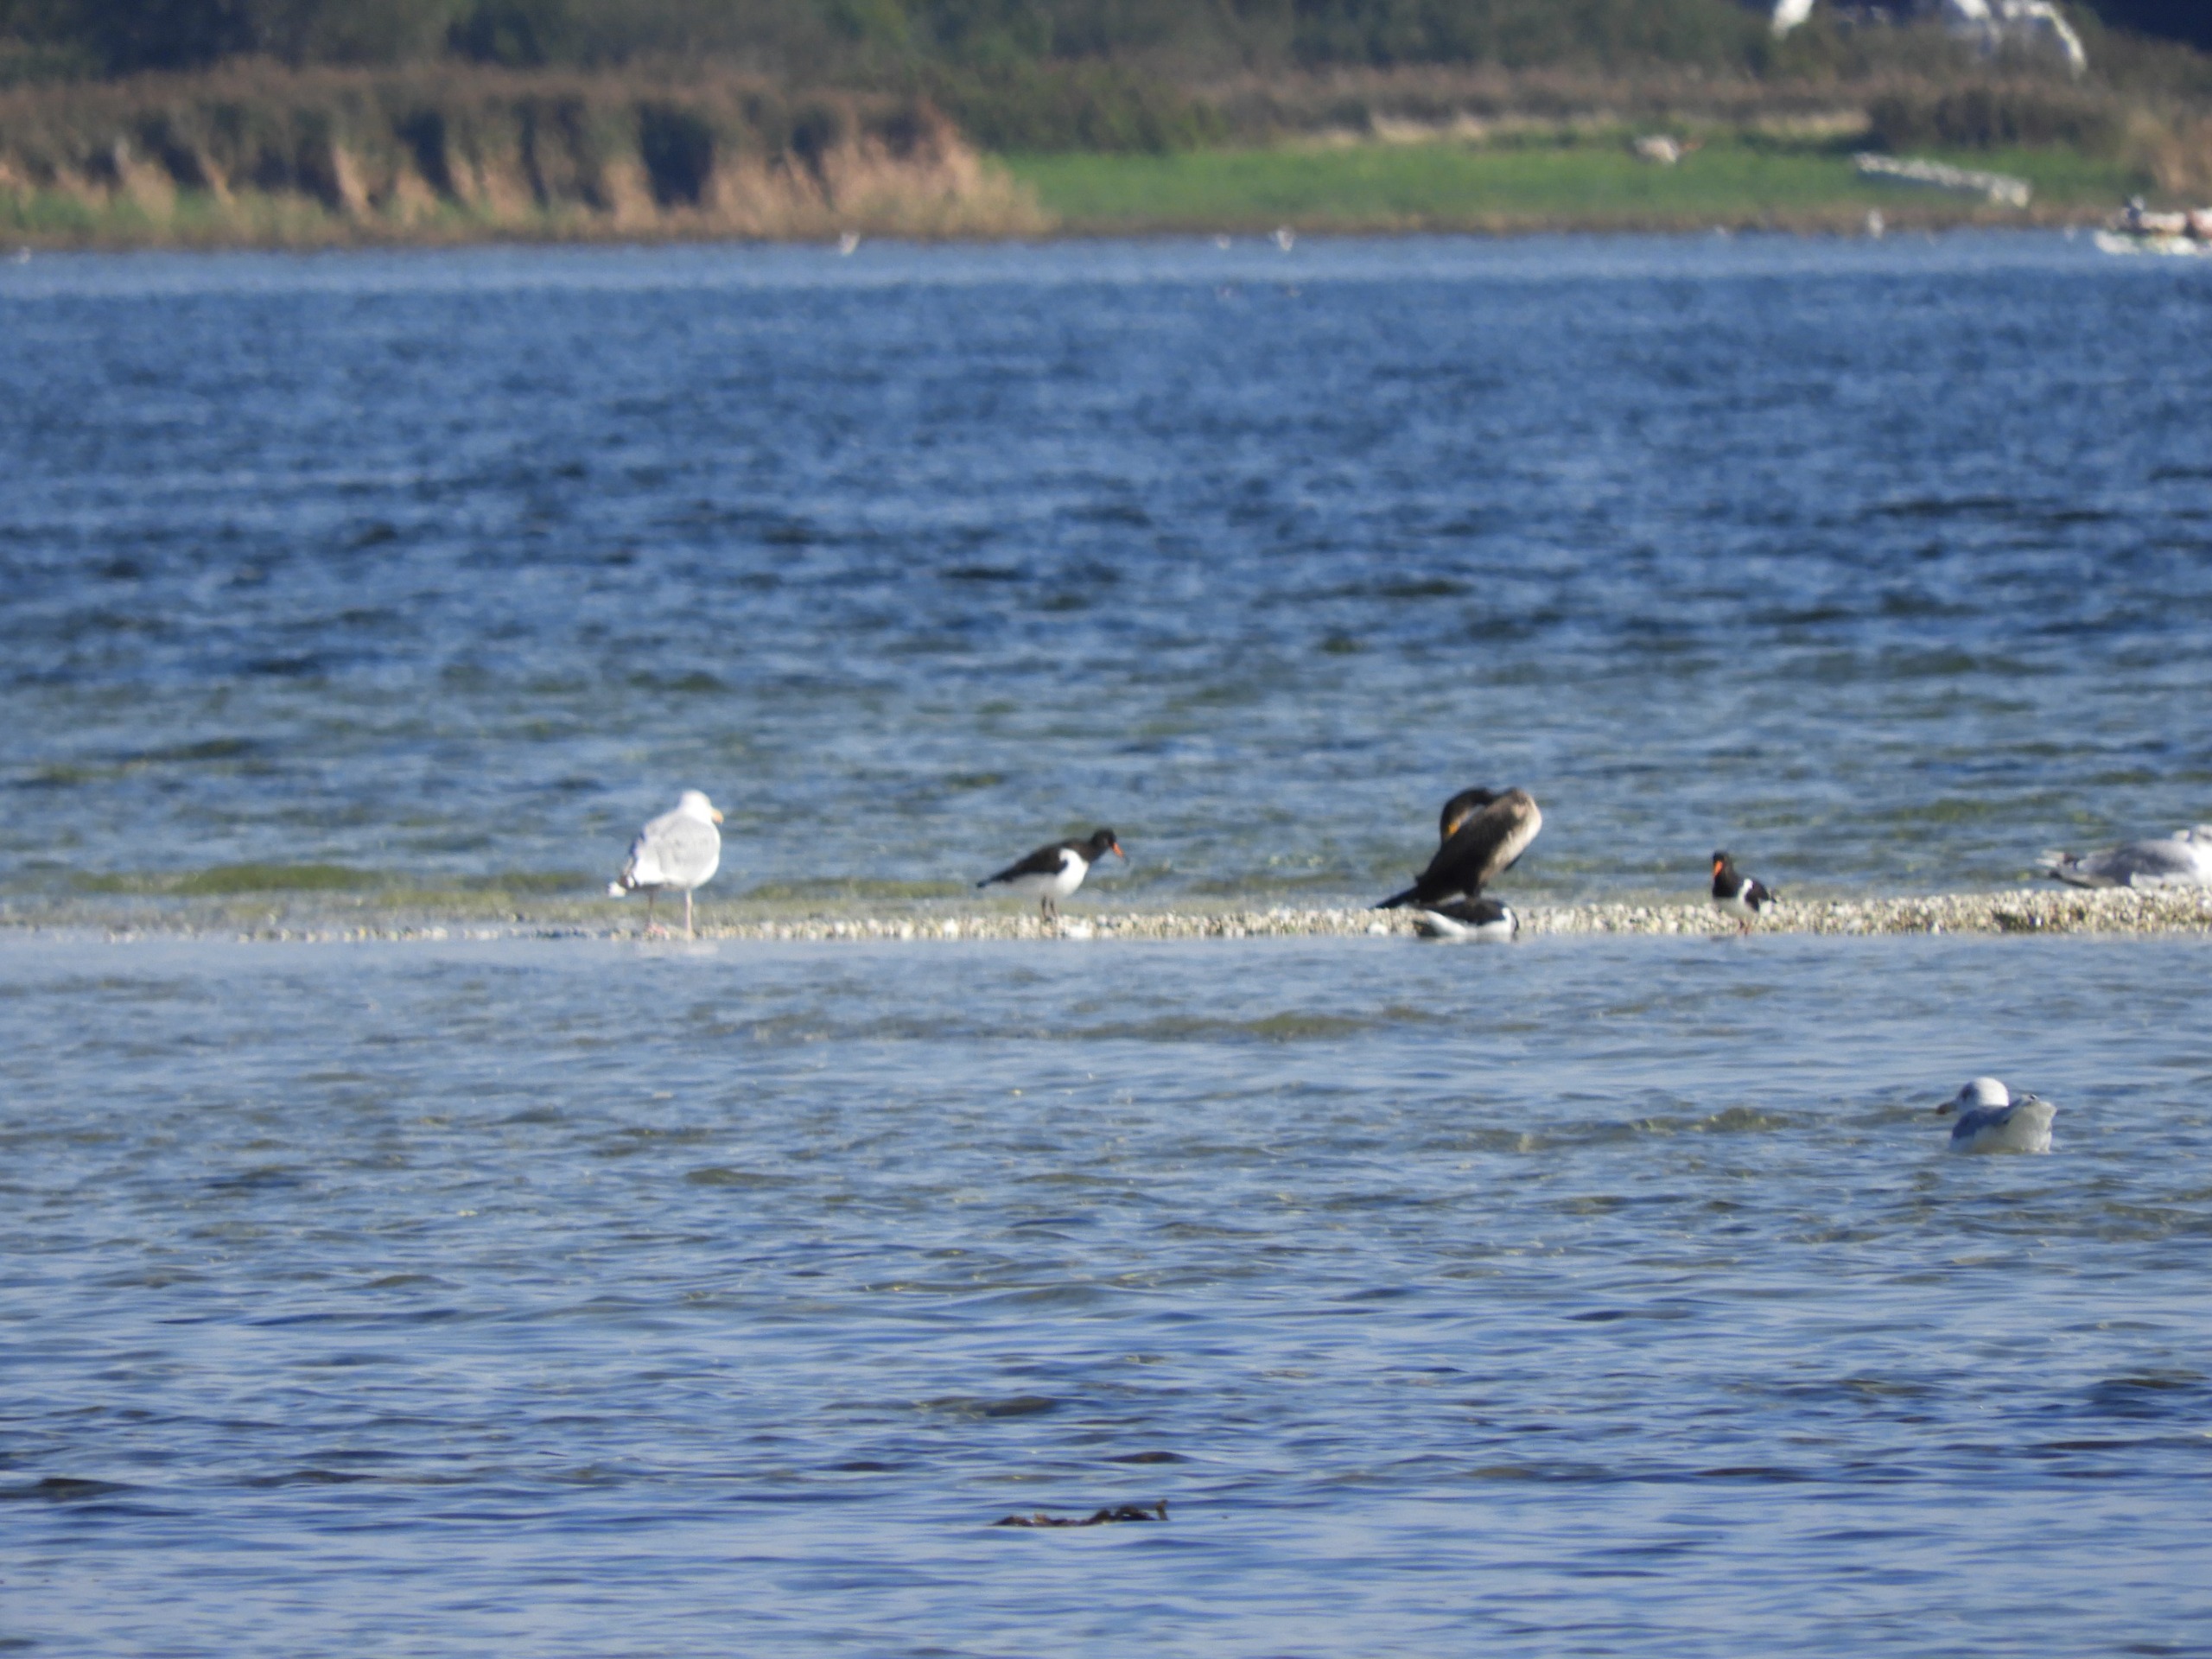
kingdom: Animalia
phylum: Chordata
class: Aves
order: Charadriiformes
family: Haematopodidae
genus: Haematopus
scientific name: Haematopus ostralegus
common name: Strandskade
